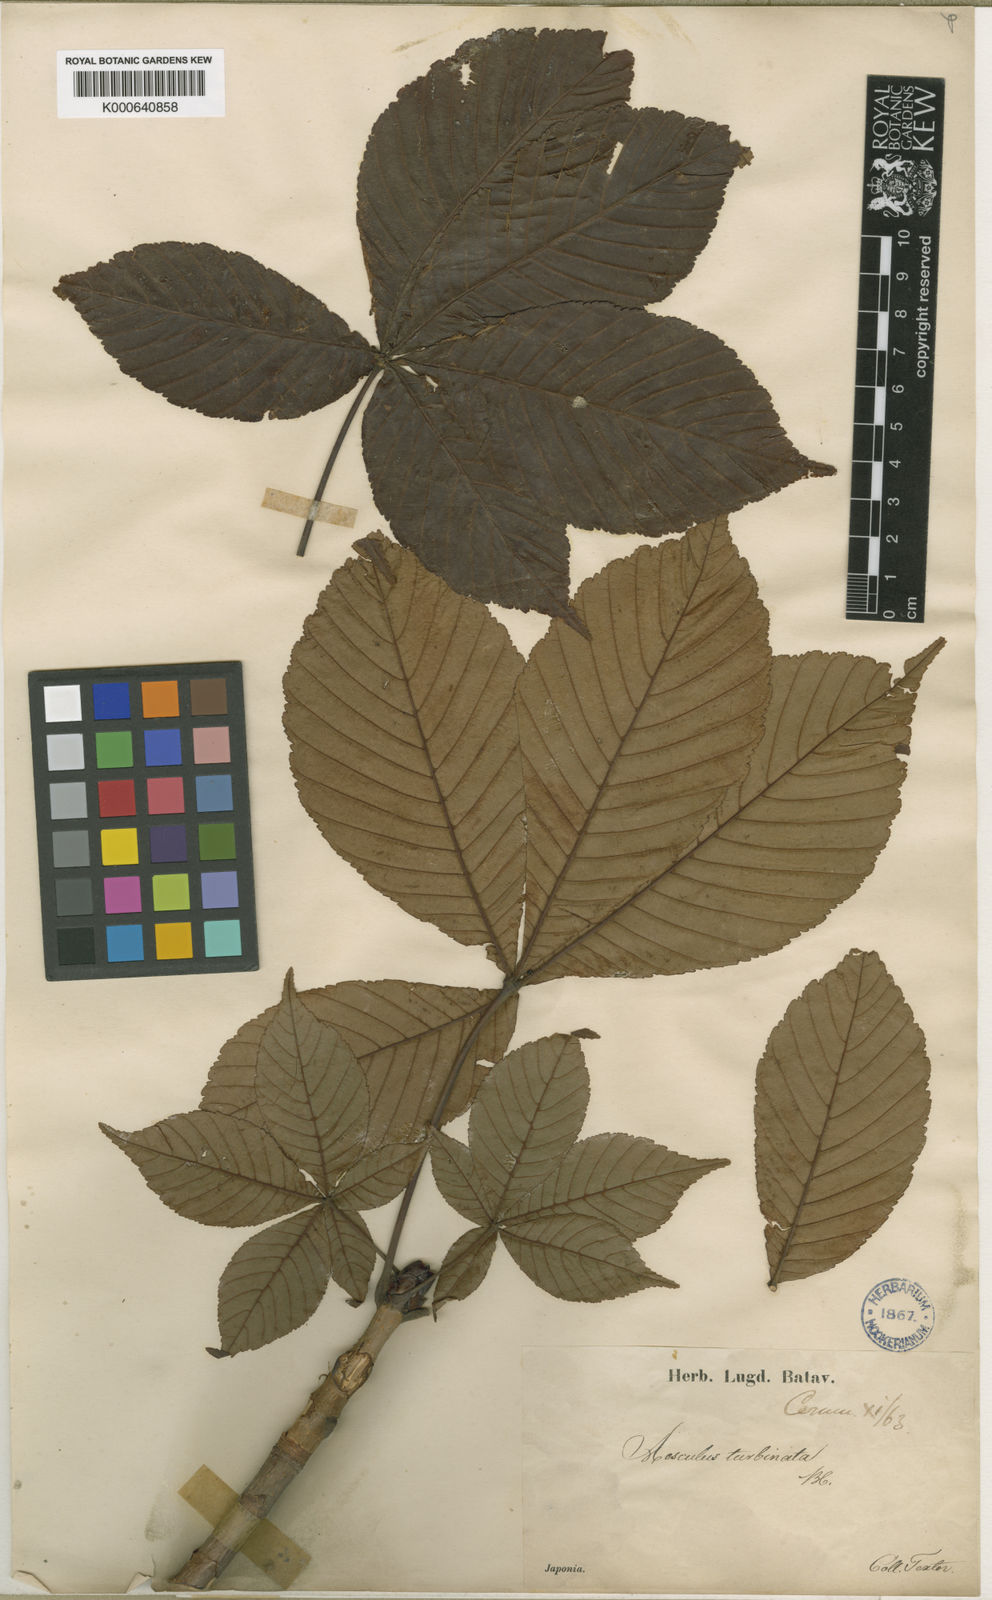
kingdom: Plantae
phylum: Tracheophyta
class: Magnoliopsida
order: Sapindales
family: Sapindaceae
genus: Aesculus
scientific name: Aesculus turbinata
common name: Japanese horse-chestnut
